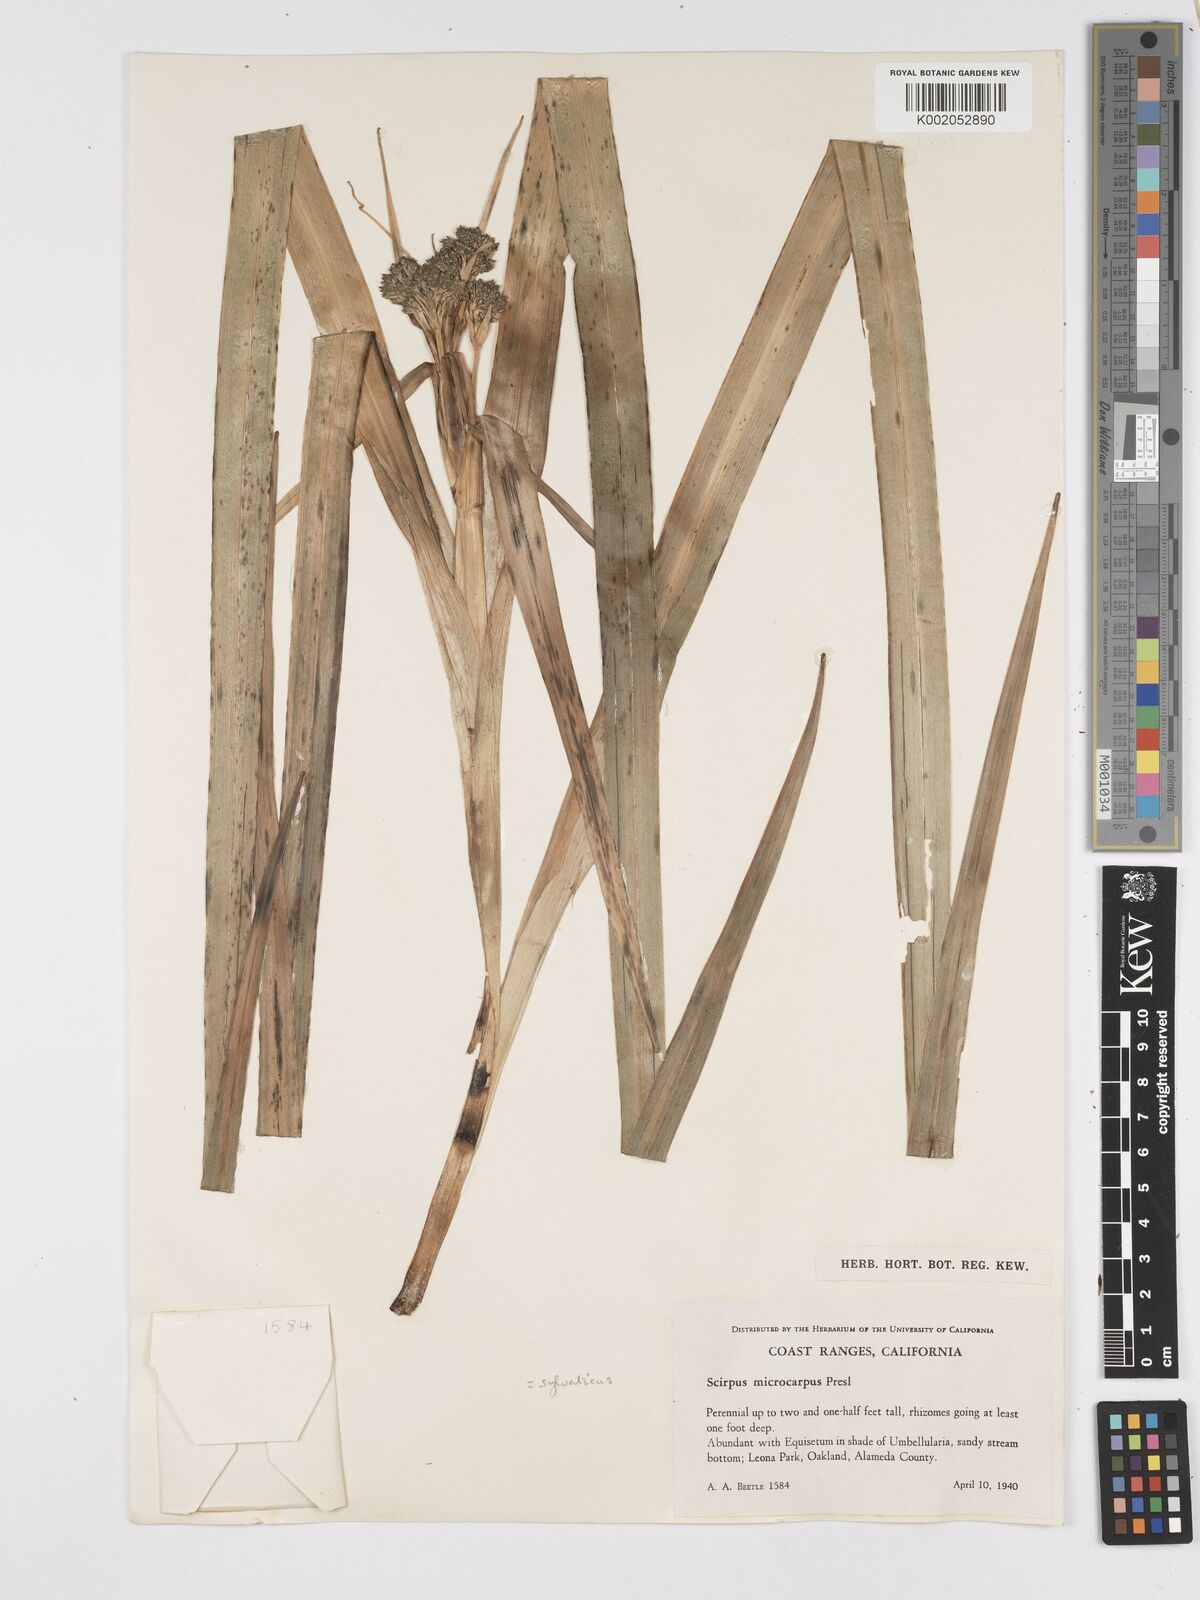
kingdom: Plantae
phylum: Tracheophyta
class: Liliopsida
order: Poales
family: Cyperaceae
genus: Scirpus
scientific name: Scirpus microcarpus
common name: Panicled bulrush
